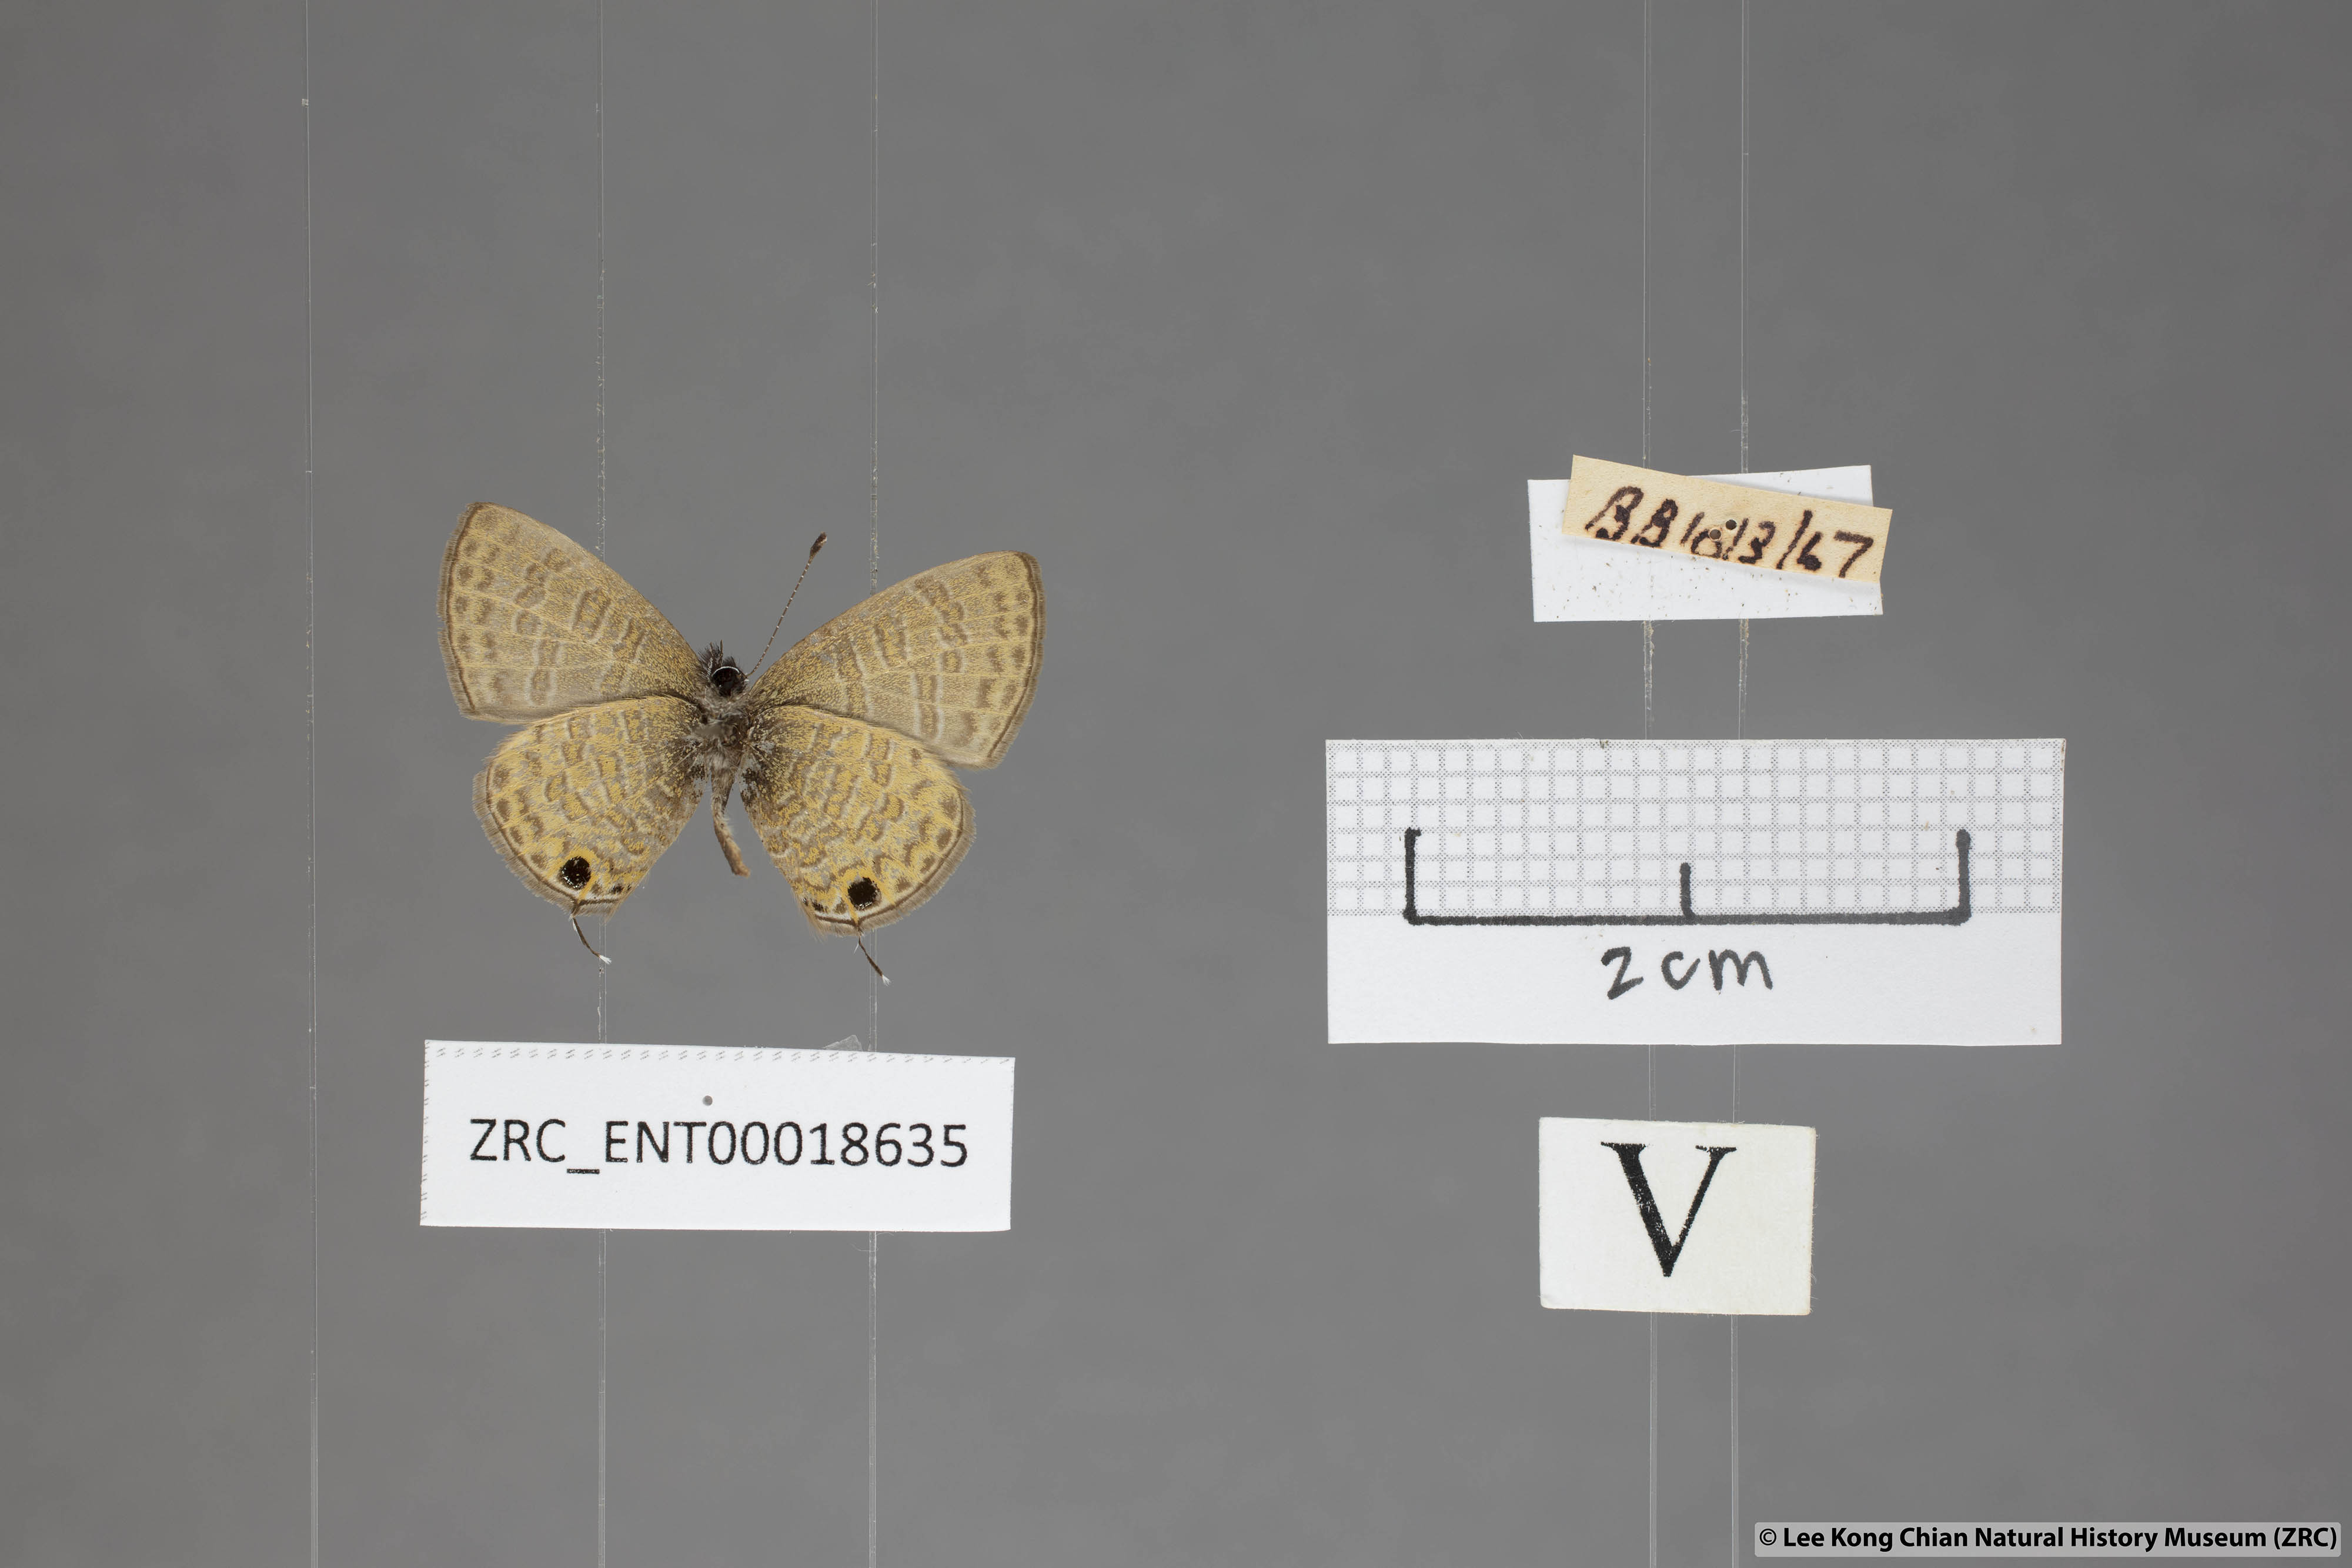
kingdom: Animalia
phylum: Arthropoda
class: Insecta
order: Lepidoptera
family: Lycaenidae
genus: Prosotas
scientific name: Prosotas nora
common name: Common line blue
